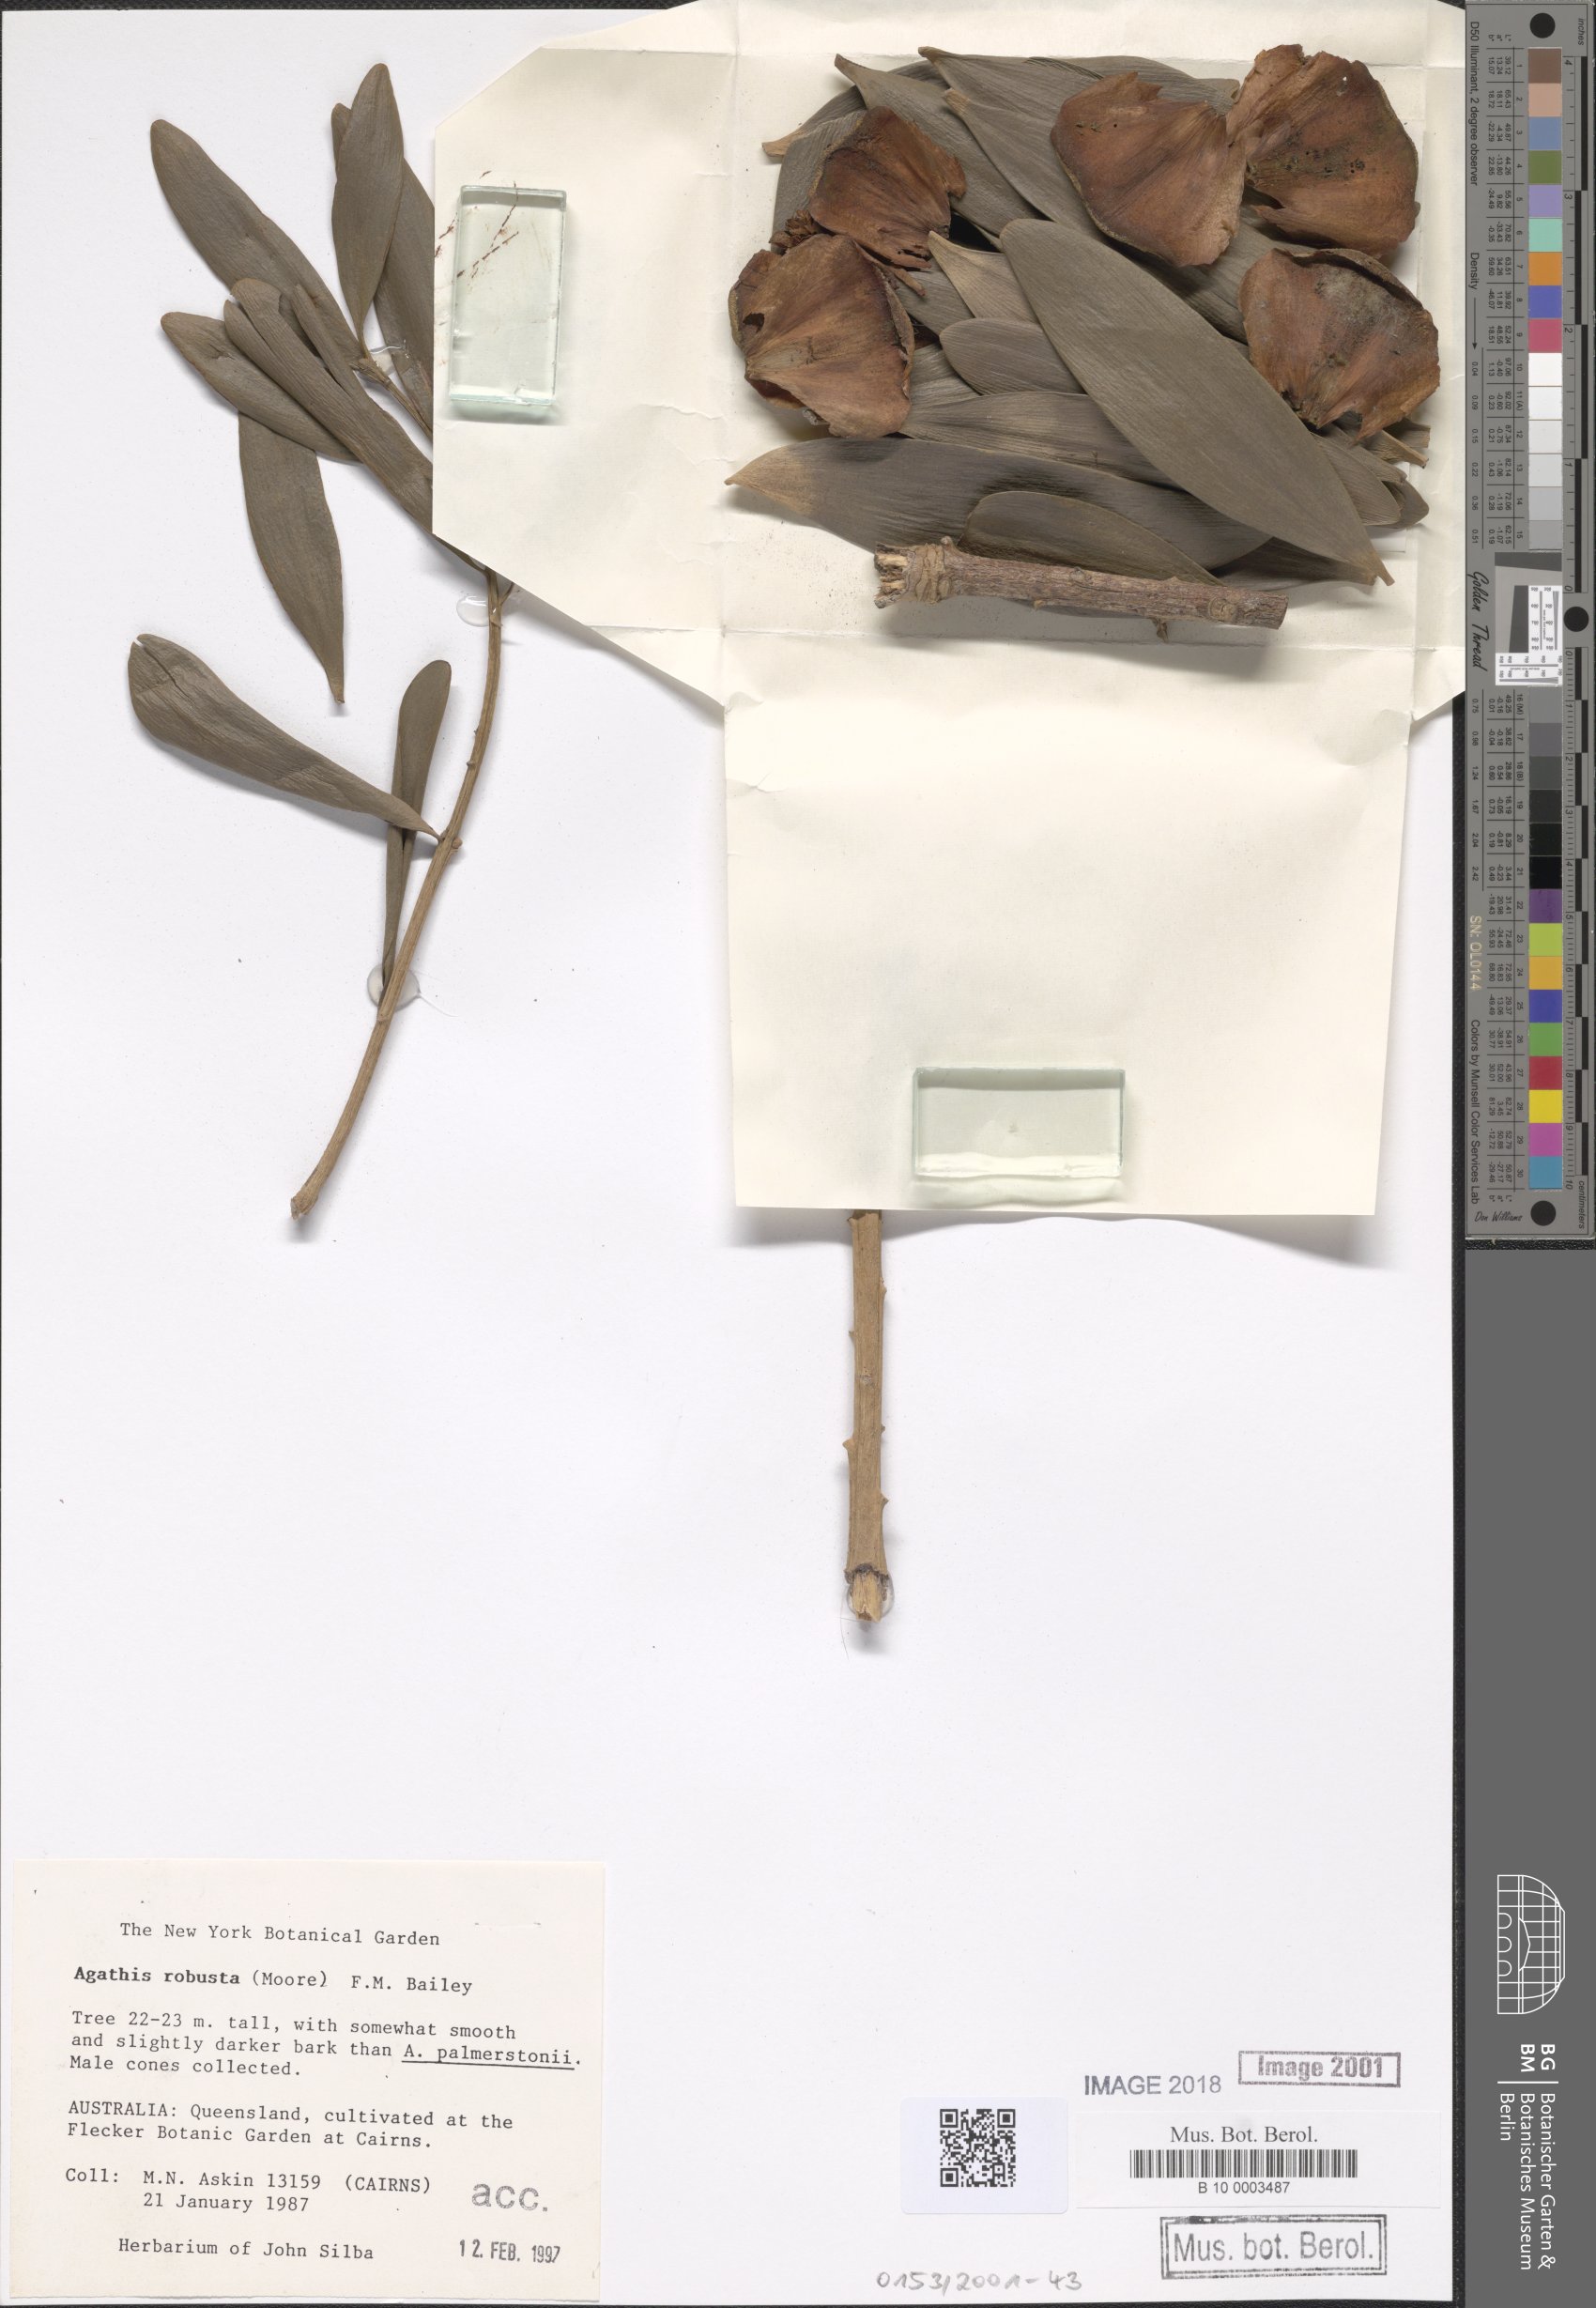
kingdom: Plantae
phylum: Tracheophyta
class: Pinopsida
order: Pinales
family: Araucariaceae
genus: Agathis
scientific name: Agathis robusta
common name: Australian-kauri
